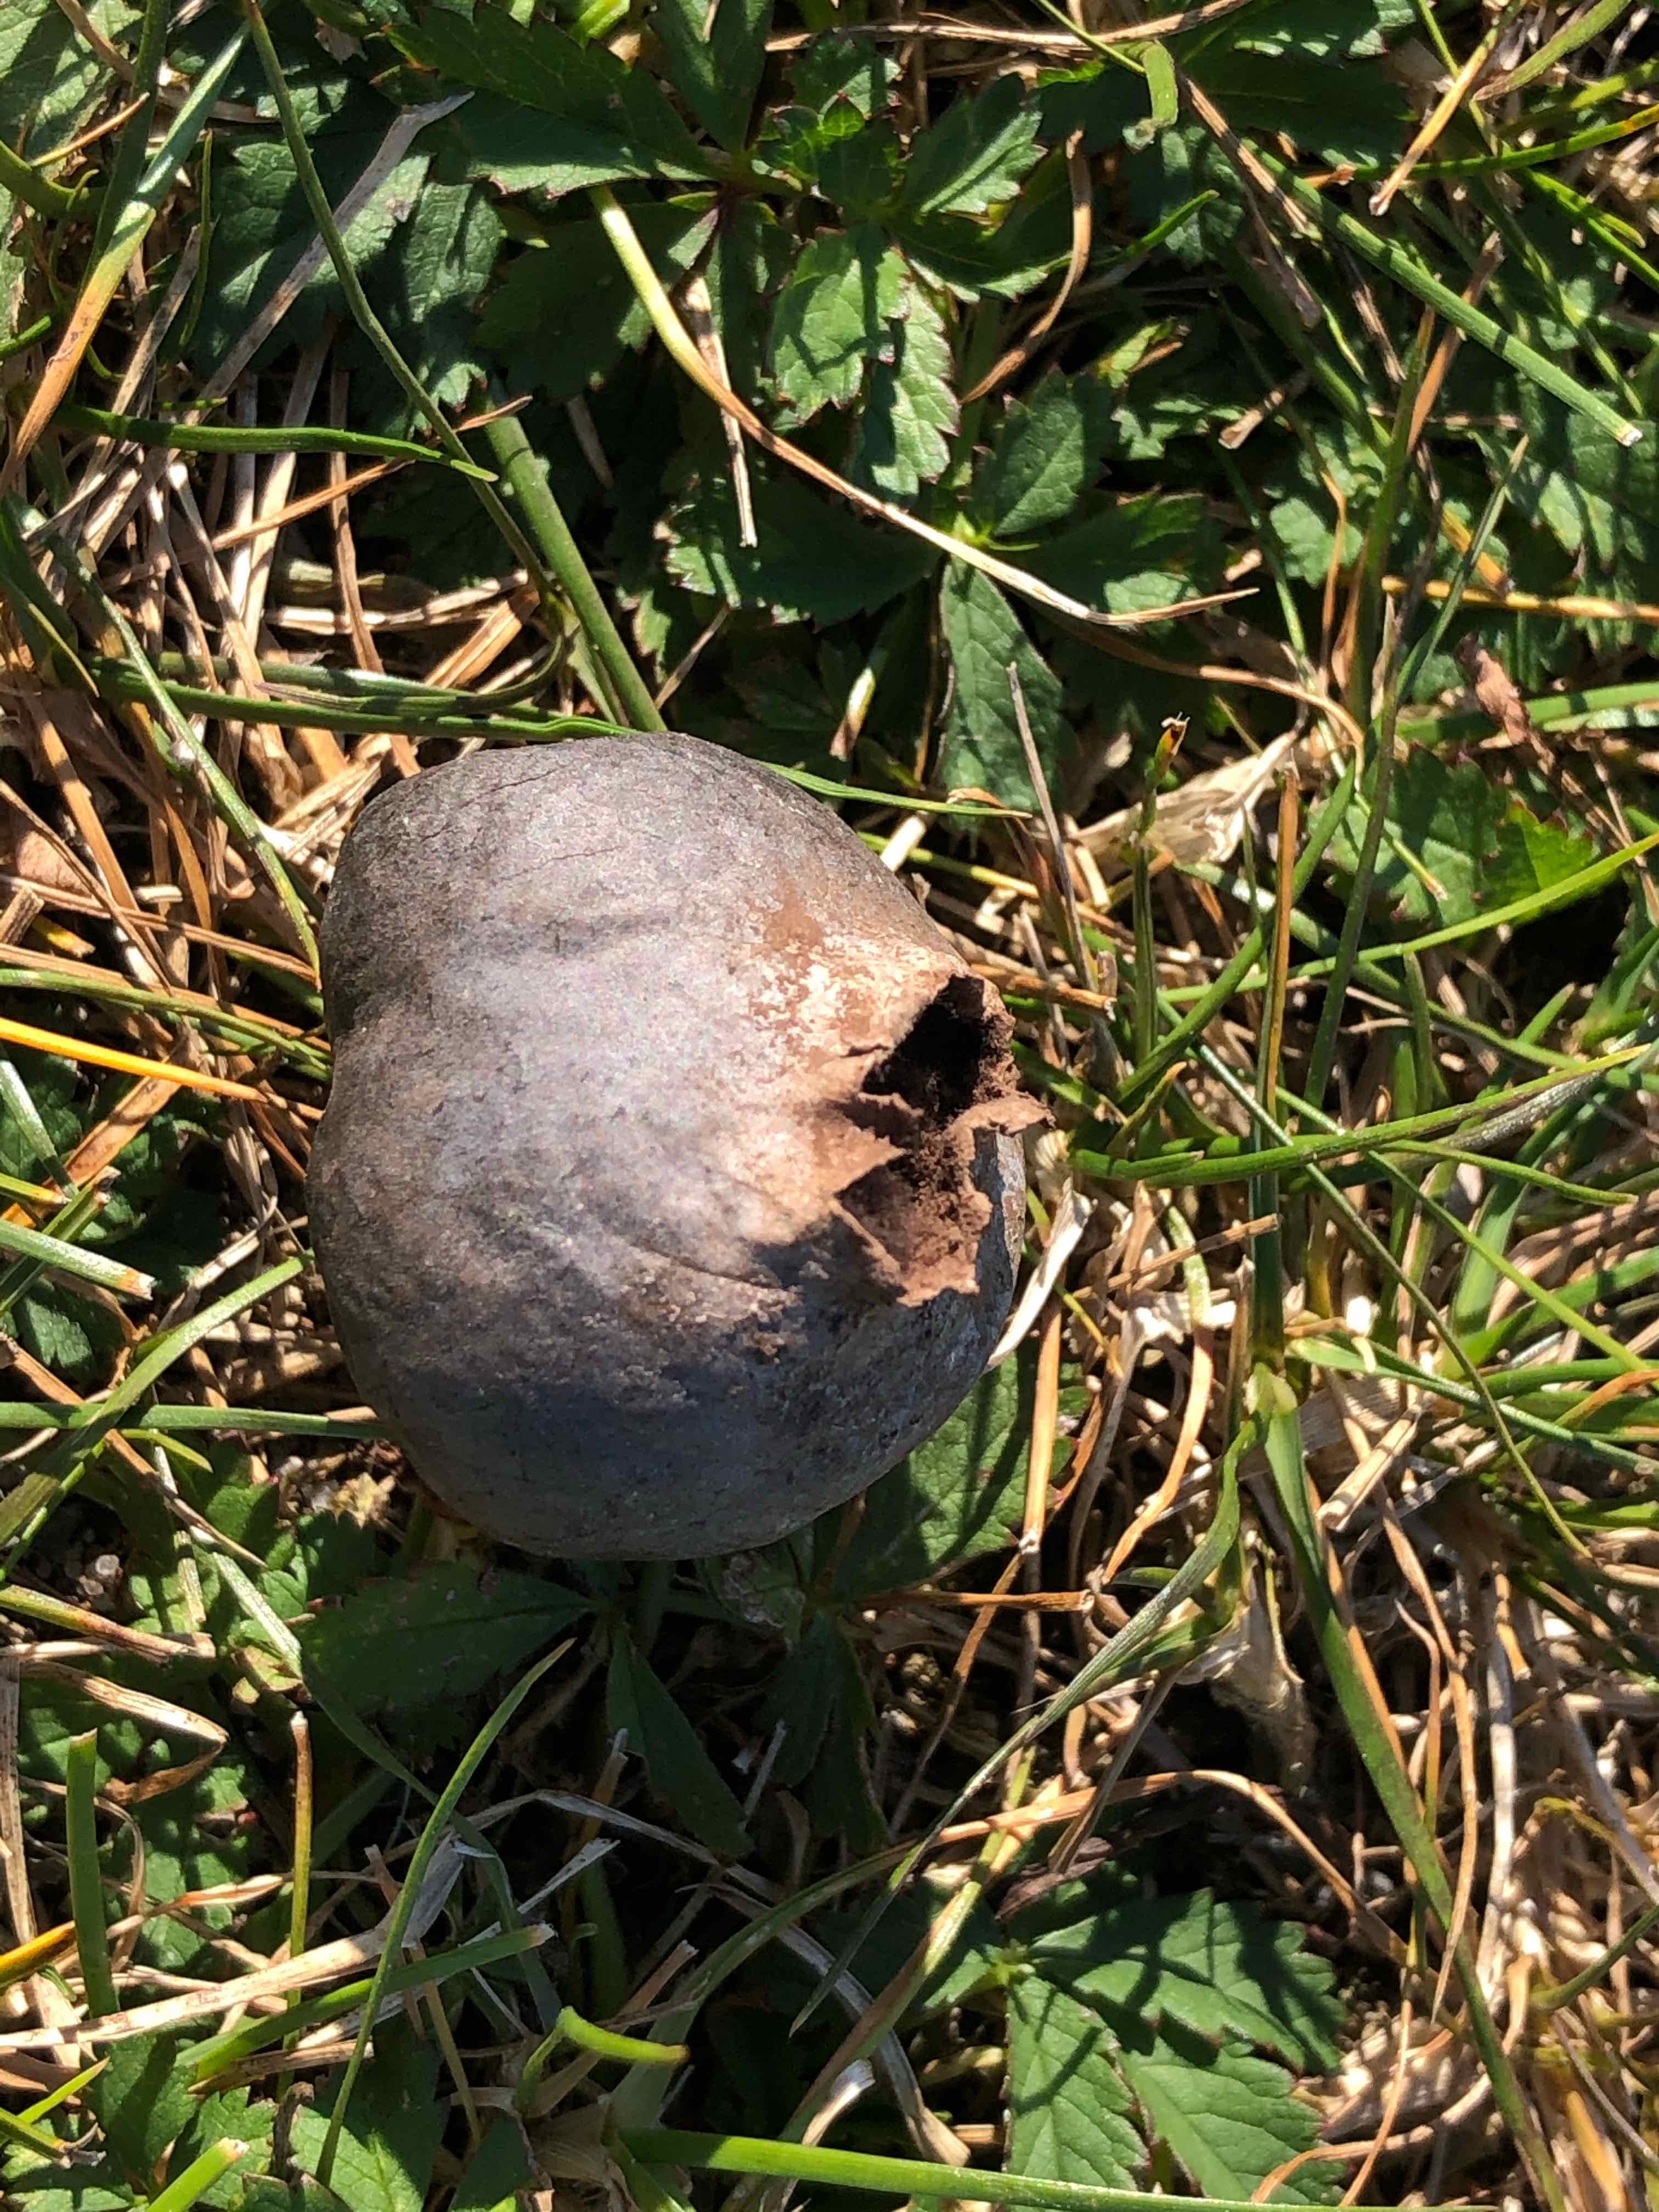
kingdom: Fungi
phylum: Basidiomycota
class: Agaricomycetes
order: Agaricales
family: Lycoperdaceae
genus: Bovista
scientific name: Bovista nigrescens
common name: sortagtig bovist
